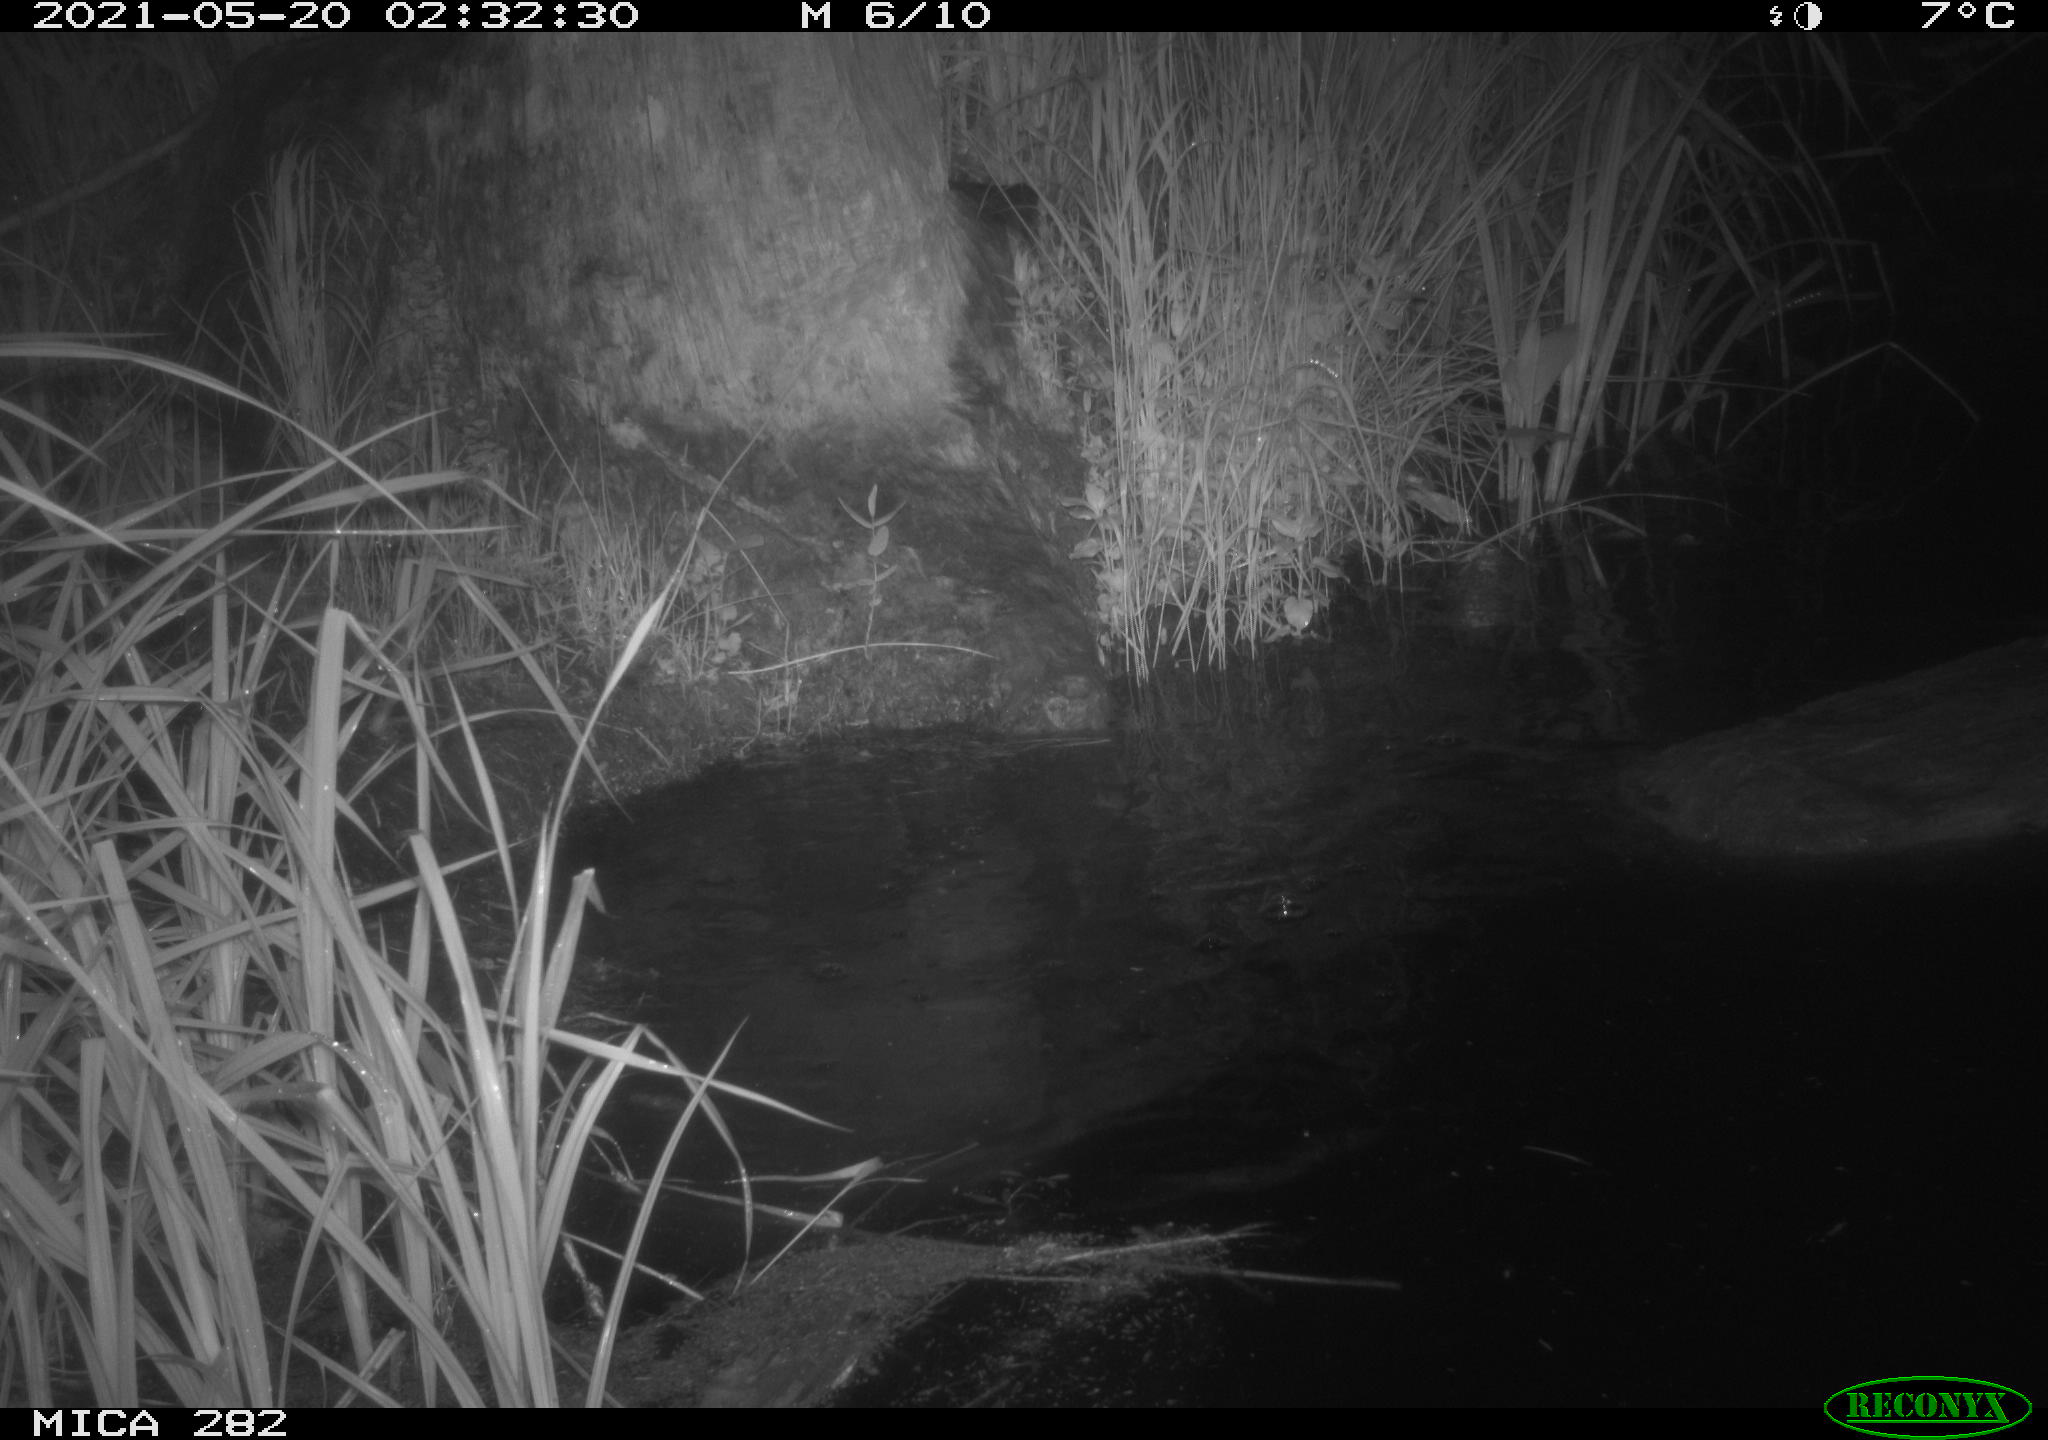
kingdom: Animalia
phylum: Chordata
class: Mammalia
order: Rodentia
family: Castoridae
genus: Castor
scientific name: Castor fiber
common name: Eurasian beaver
